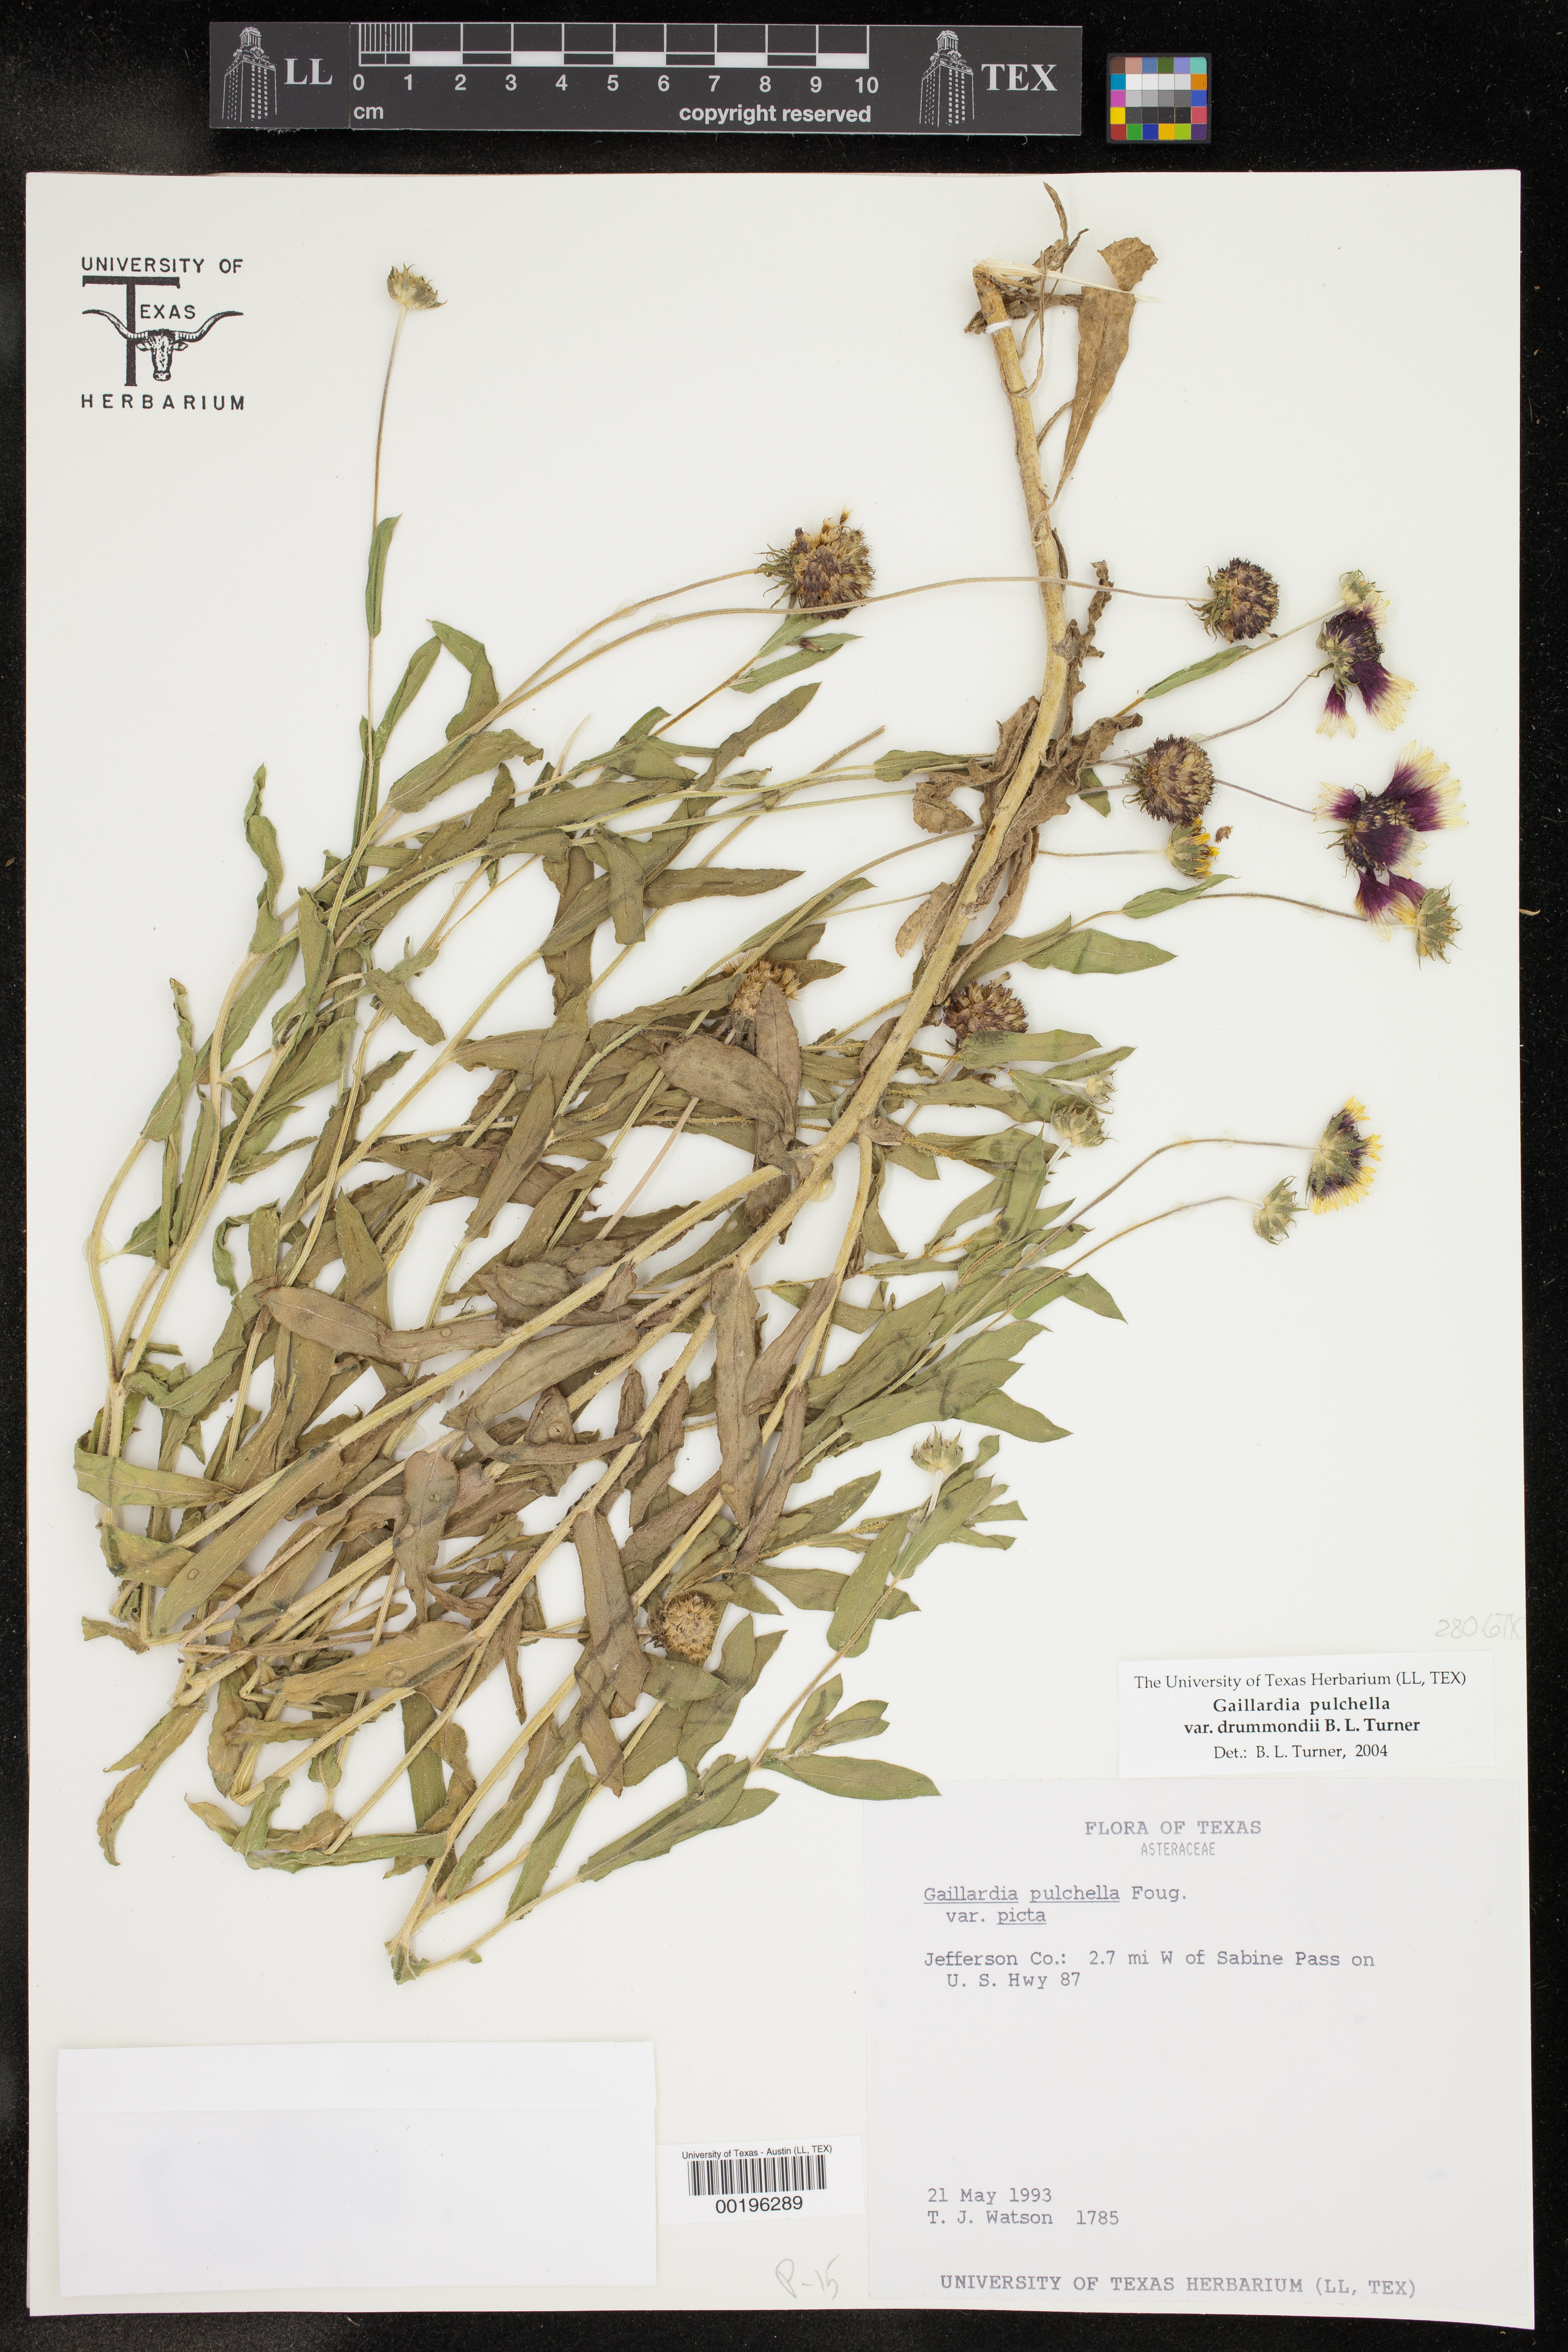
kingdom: Plantae
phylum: Tracheophyta
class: Magnoliopsida
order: Asterales
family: Asteraceae
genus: Gaillardia
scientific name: Gaillardia pulchella
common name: Firewheel
